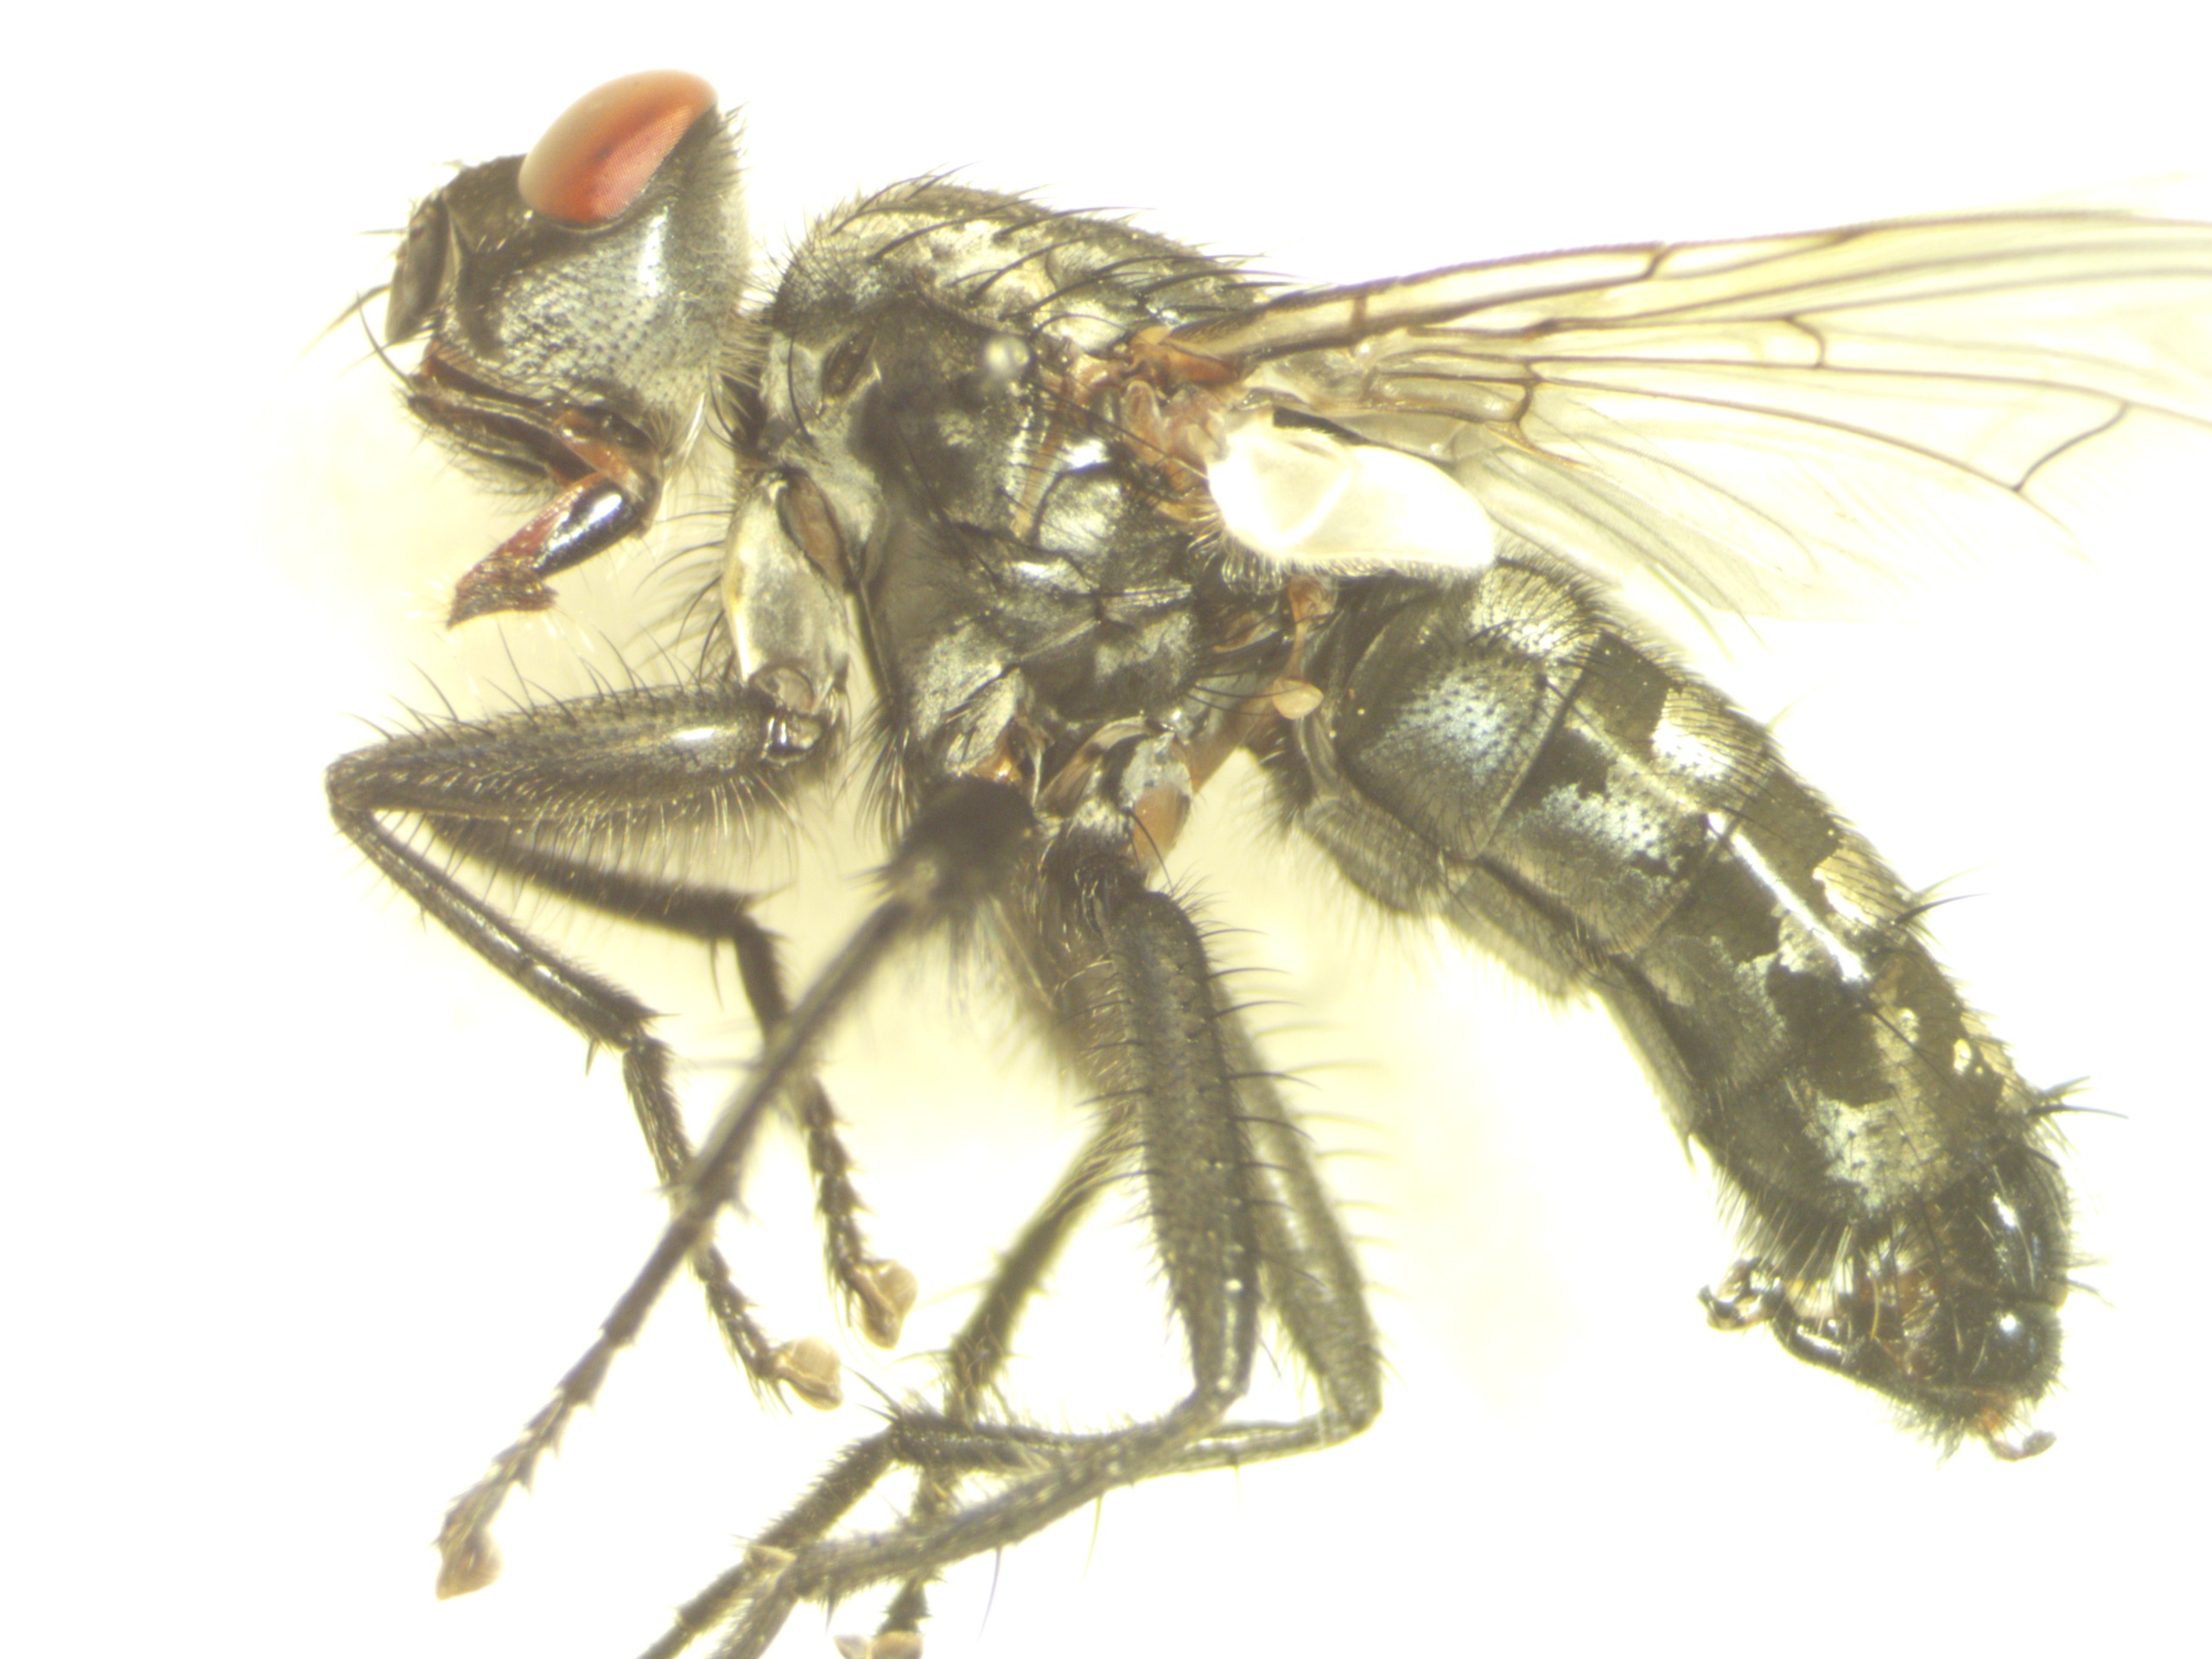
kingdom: Animalia
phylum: Arthropoda
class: Insecta
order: Diptera
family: Sarcophagidae
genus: Sarcophaga
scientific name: Sarcophaga lehmanni
